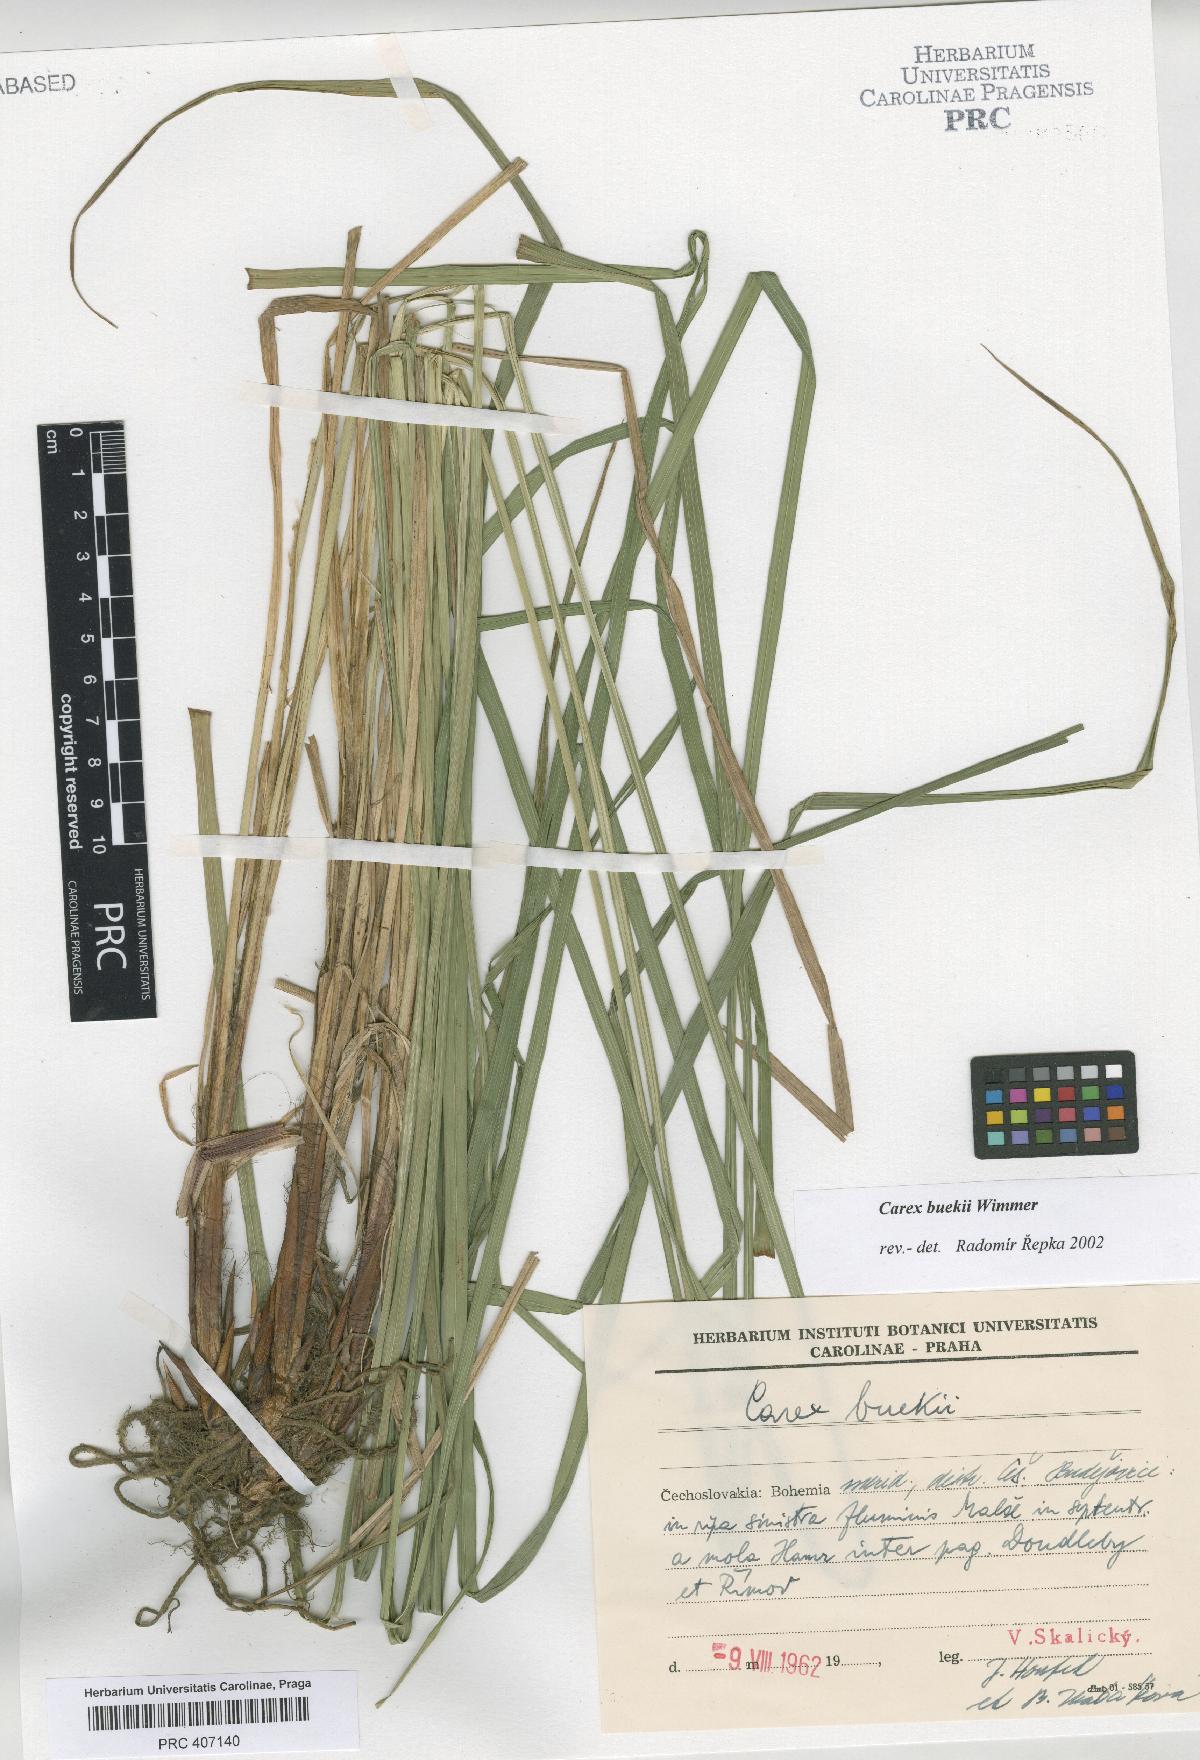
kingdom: Plantae
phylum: Tracheophyta
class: Liliopsida
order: Poales
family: Cyperaceae
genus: Carex
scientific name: Carex buekii
